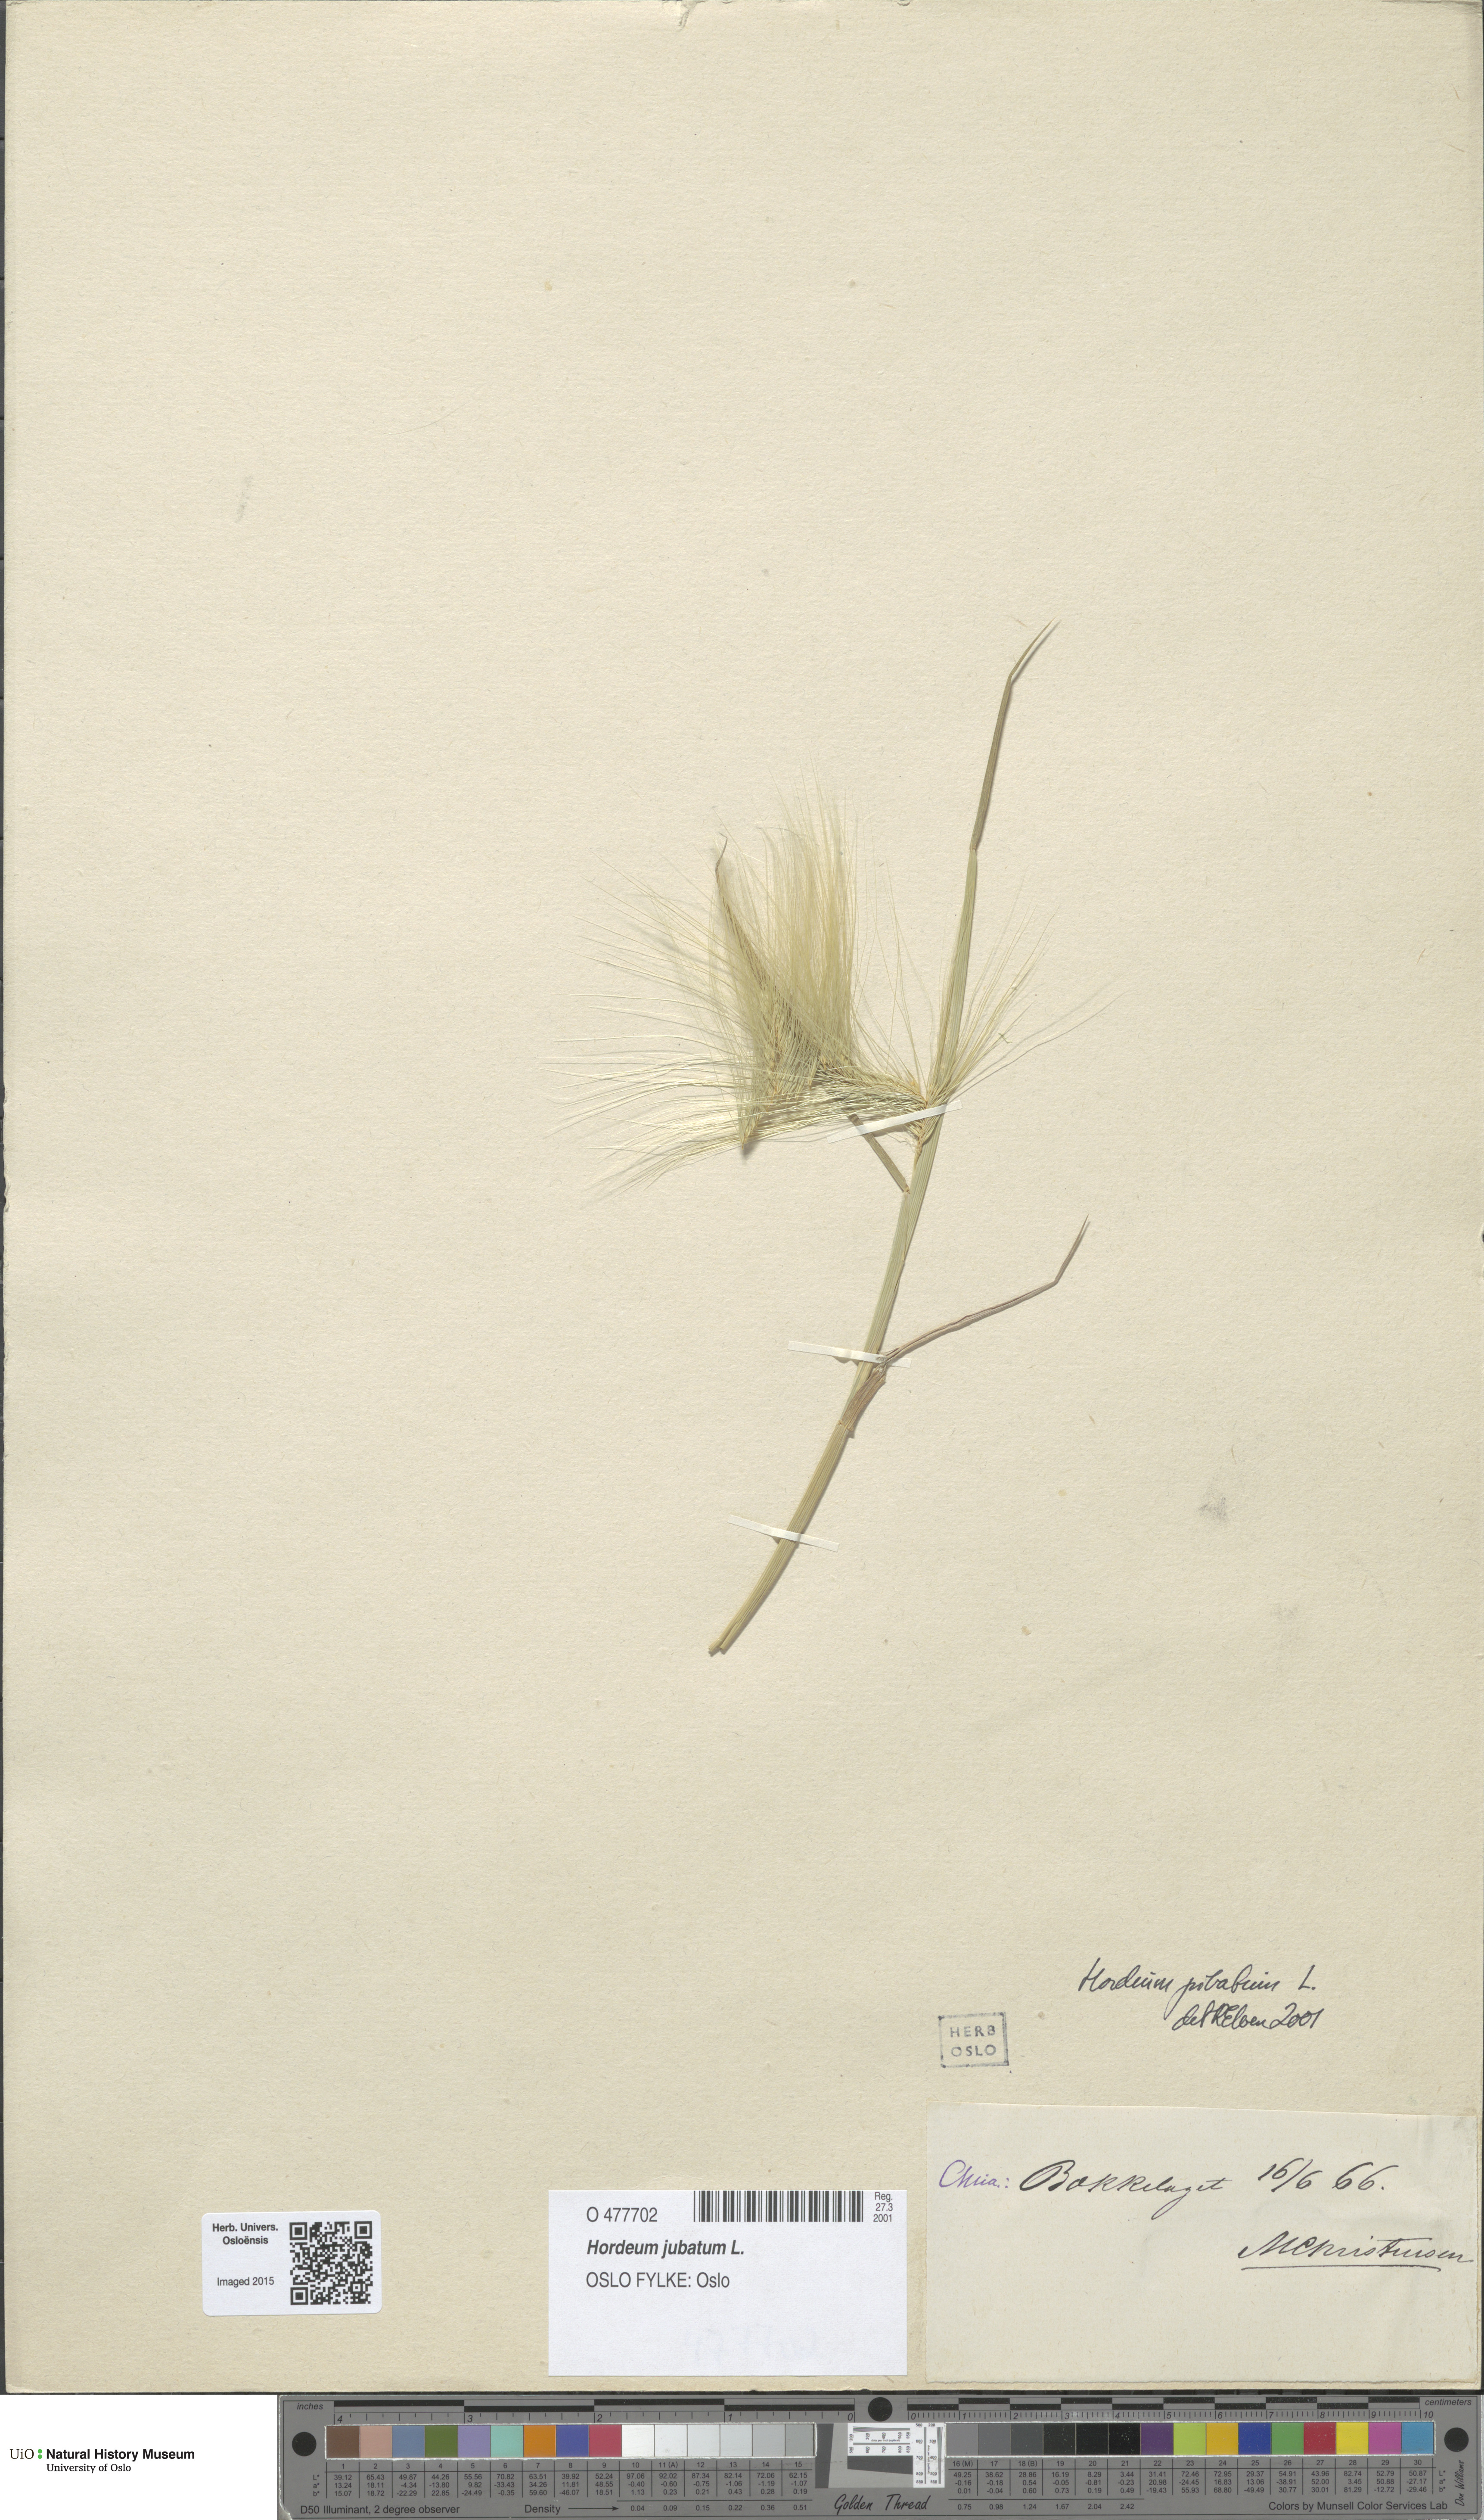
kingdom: Plantae
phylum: Tracheophyta
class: Liliopsida
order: Poales
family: Poaceae
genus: Hordeum
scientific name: Hordeum jubatum
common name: Foxtail barley
